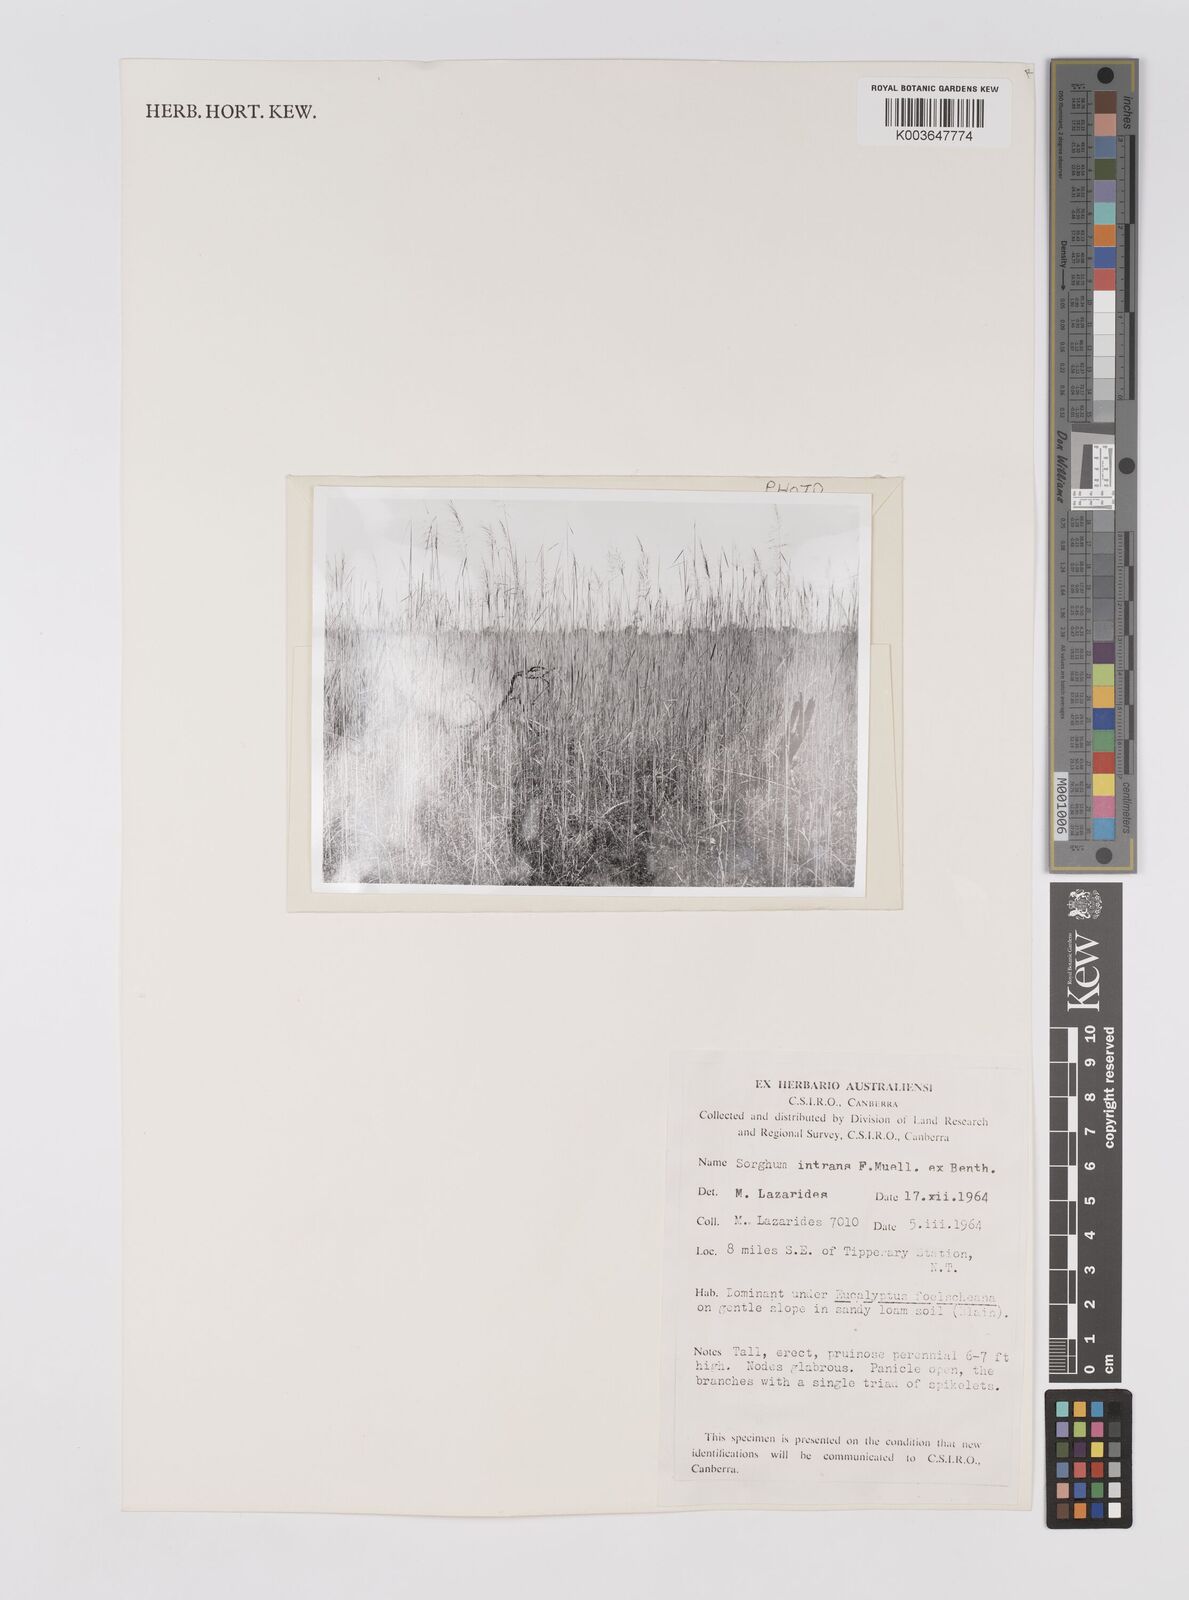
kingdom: Plantae
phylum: Tracheophyta
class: Liliopsida
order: Poales
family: Poaceae
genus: Sarga
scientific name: Sarga intrans
